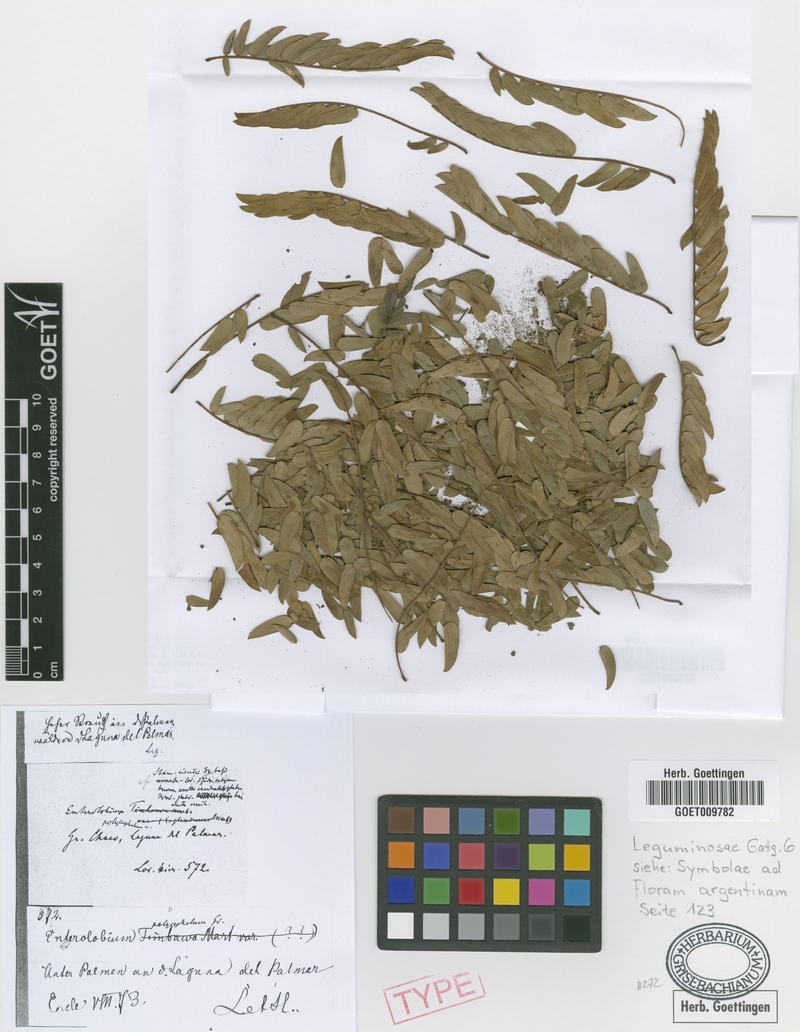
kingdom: Plantae
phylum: Tracheophyta
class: Magnoliopsida
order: Fabales
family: Fabaceae
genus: Albizia
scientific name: Albizia inundata
